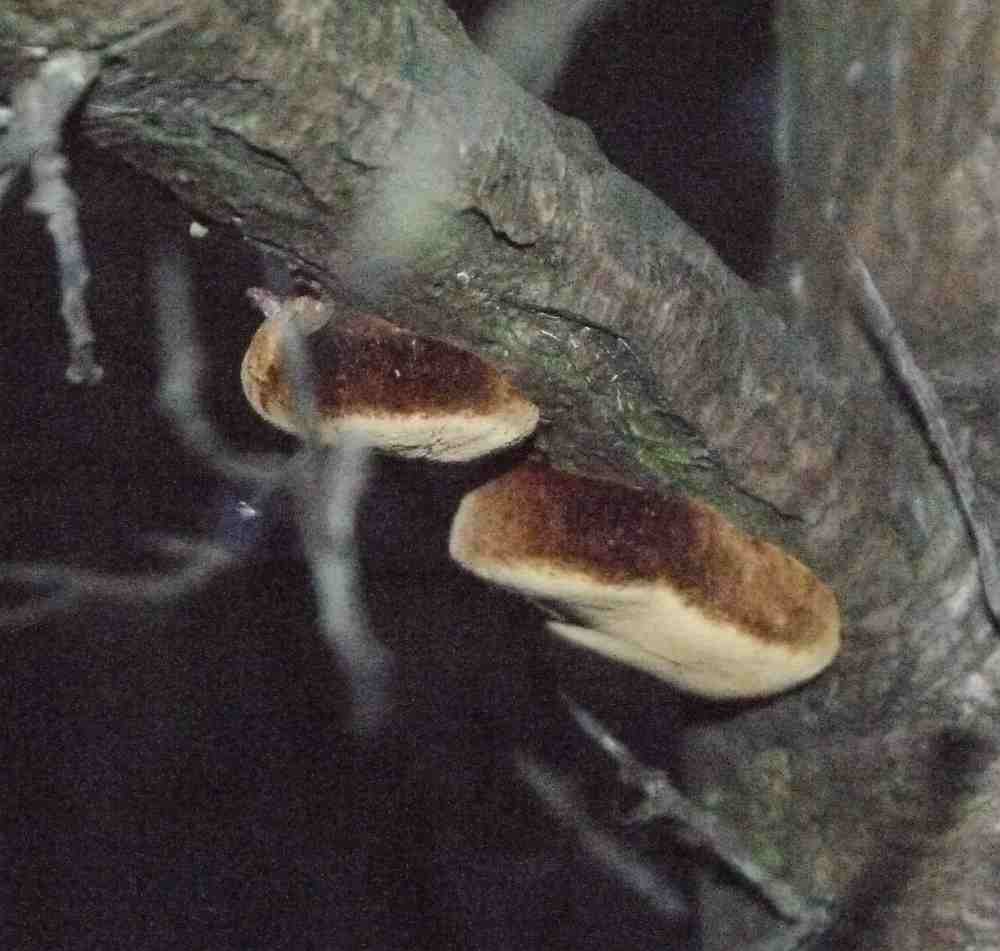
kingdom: Fungi
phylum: Basidiomycota
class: Agaricomycetes
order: Hymenochaetales
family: Hymenochaetaceae
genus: Fomitiporia
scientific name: Fomitiporia hippophaeicola
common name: havtorn-ildporesvamp
